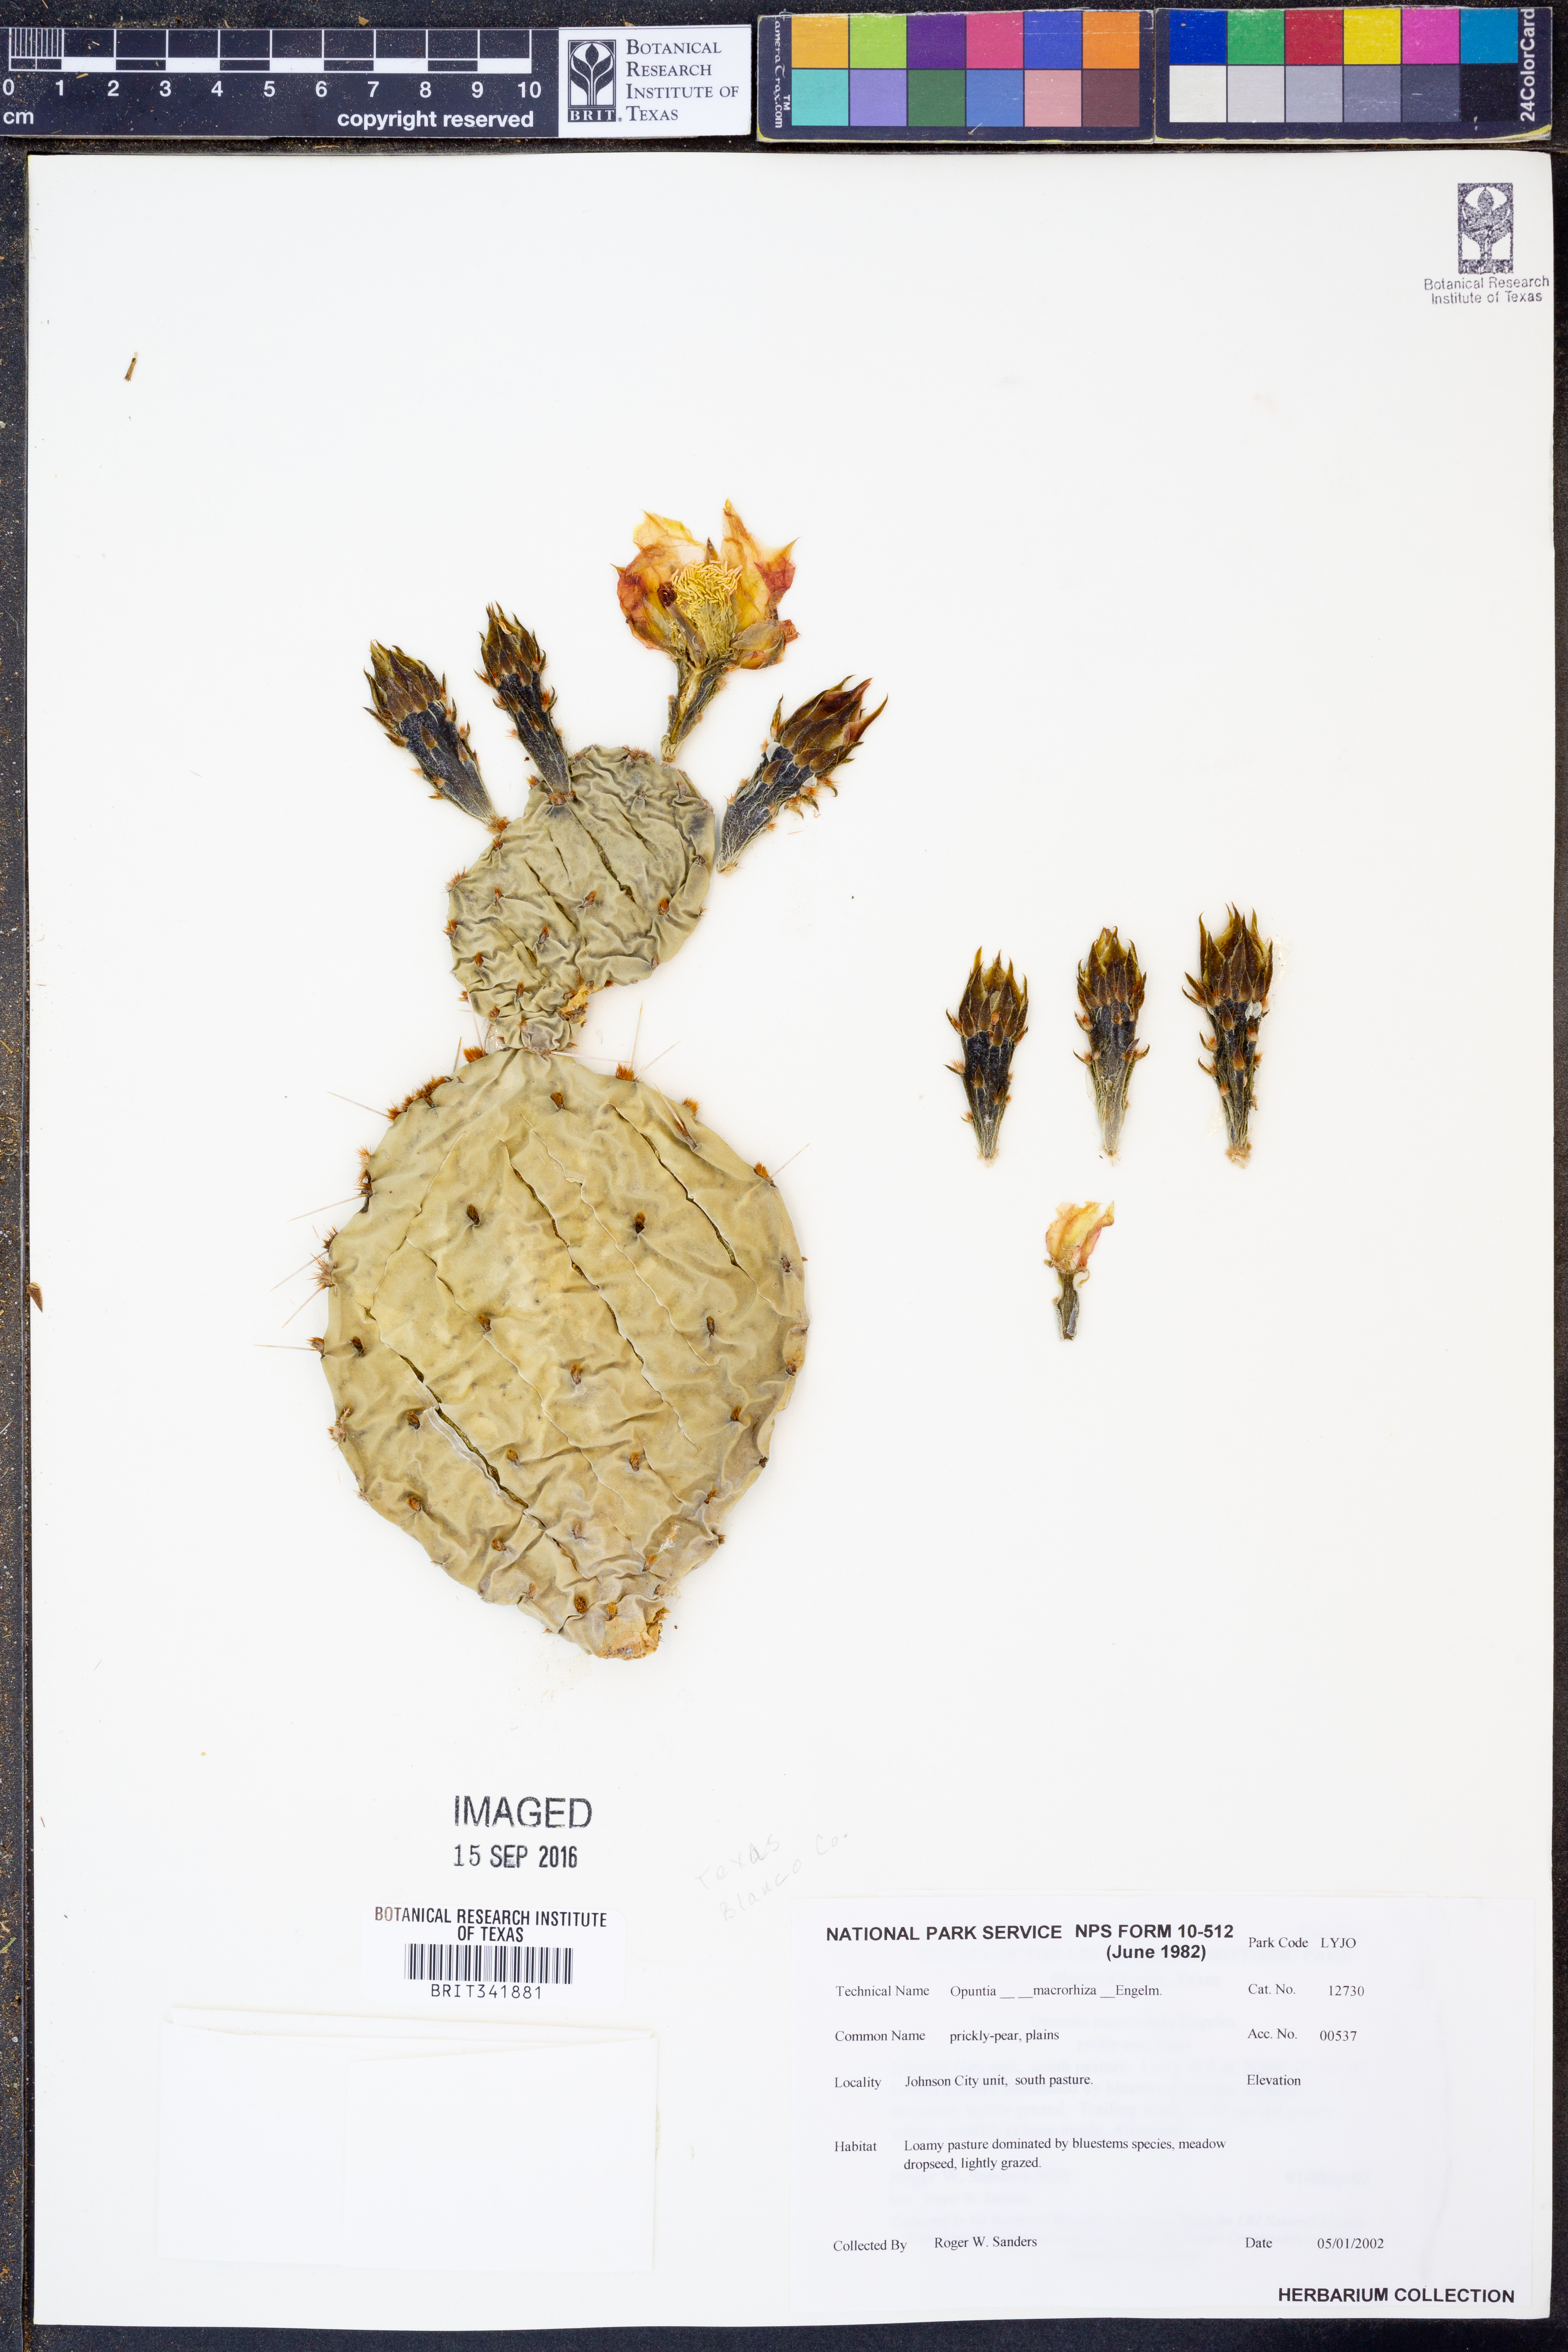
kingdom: Plantae
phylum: Tracheophyta
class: Magnoliopsida
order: Caryophyllales
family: Cactaceae
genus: Opuntia
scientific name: Opuntia macrorhiza
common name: Grassland pricklypear
